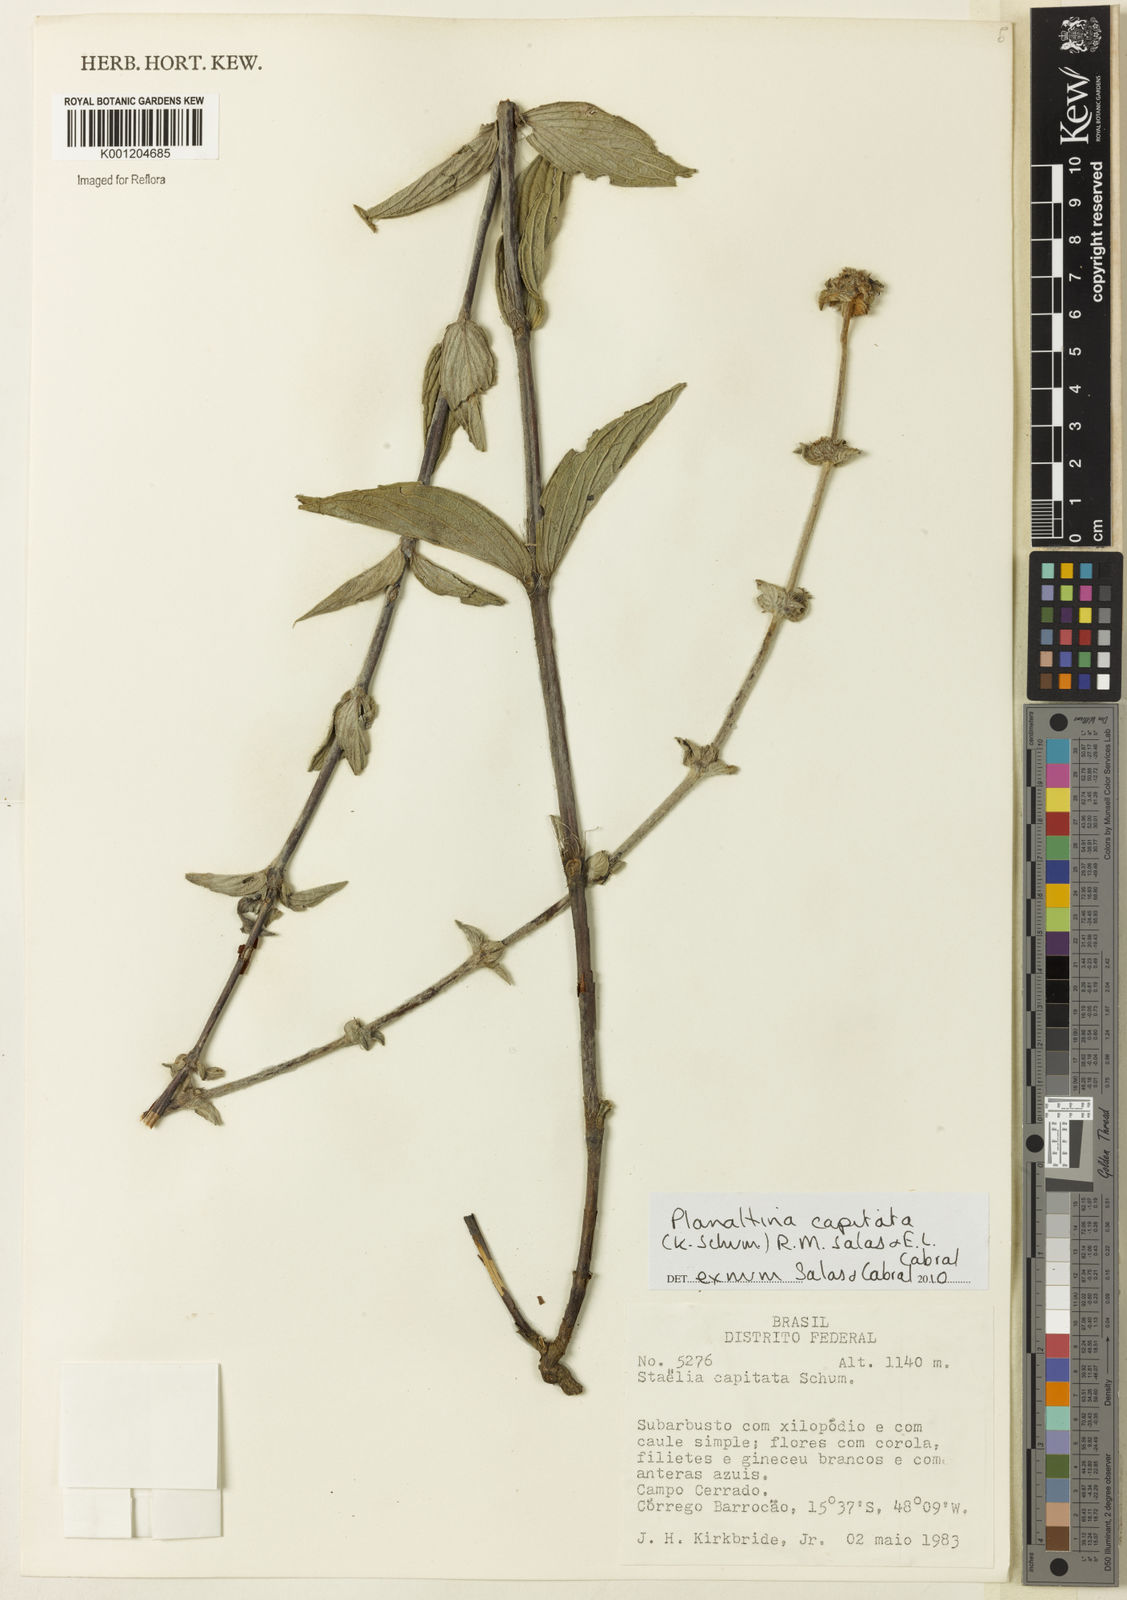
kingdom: Plantae
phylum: Tracheophyta
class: Magnoliopsida
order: Gentianales
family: Rubiaceae
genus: Planaltina
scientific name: Planaltina capitata
